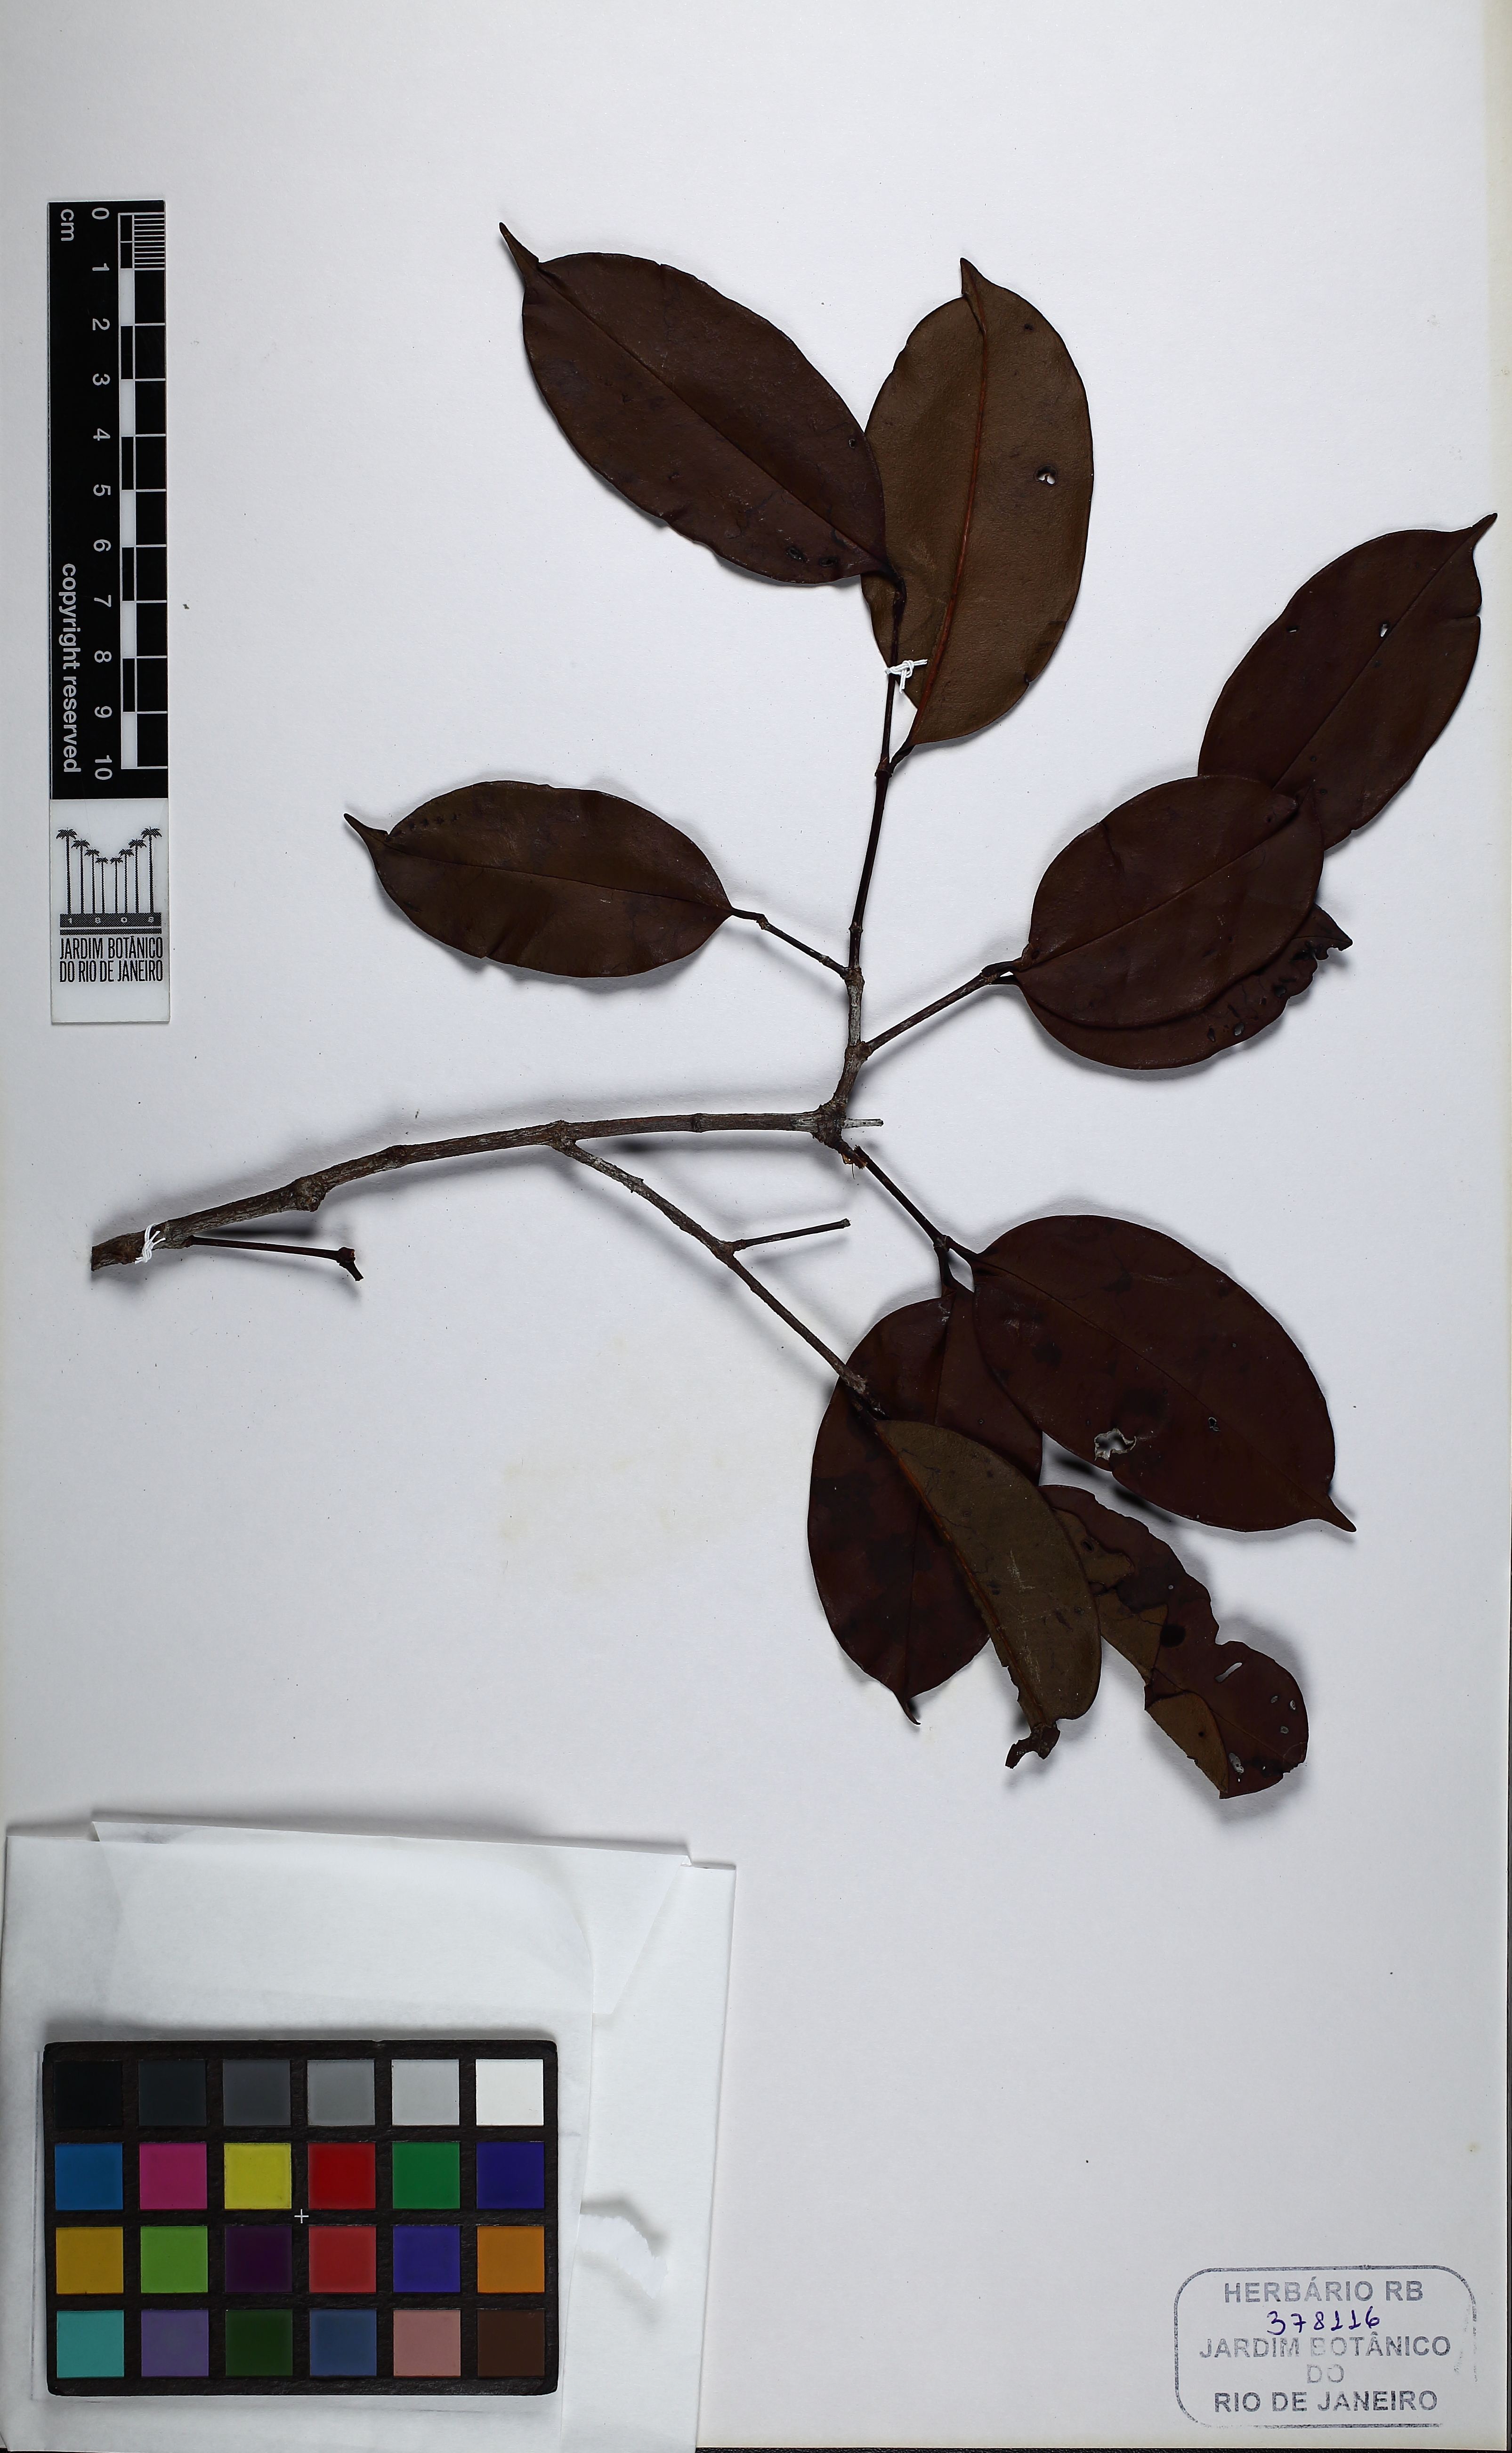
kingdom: Plantae
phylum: Tracheophyta
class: Magnoliopsida
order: Myrtales
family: Melastomataceae
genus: Mouriri
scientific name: Mouriri subumbellata
